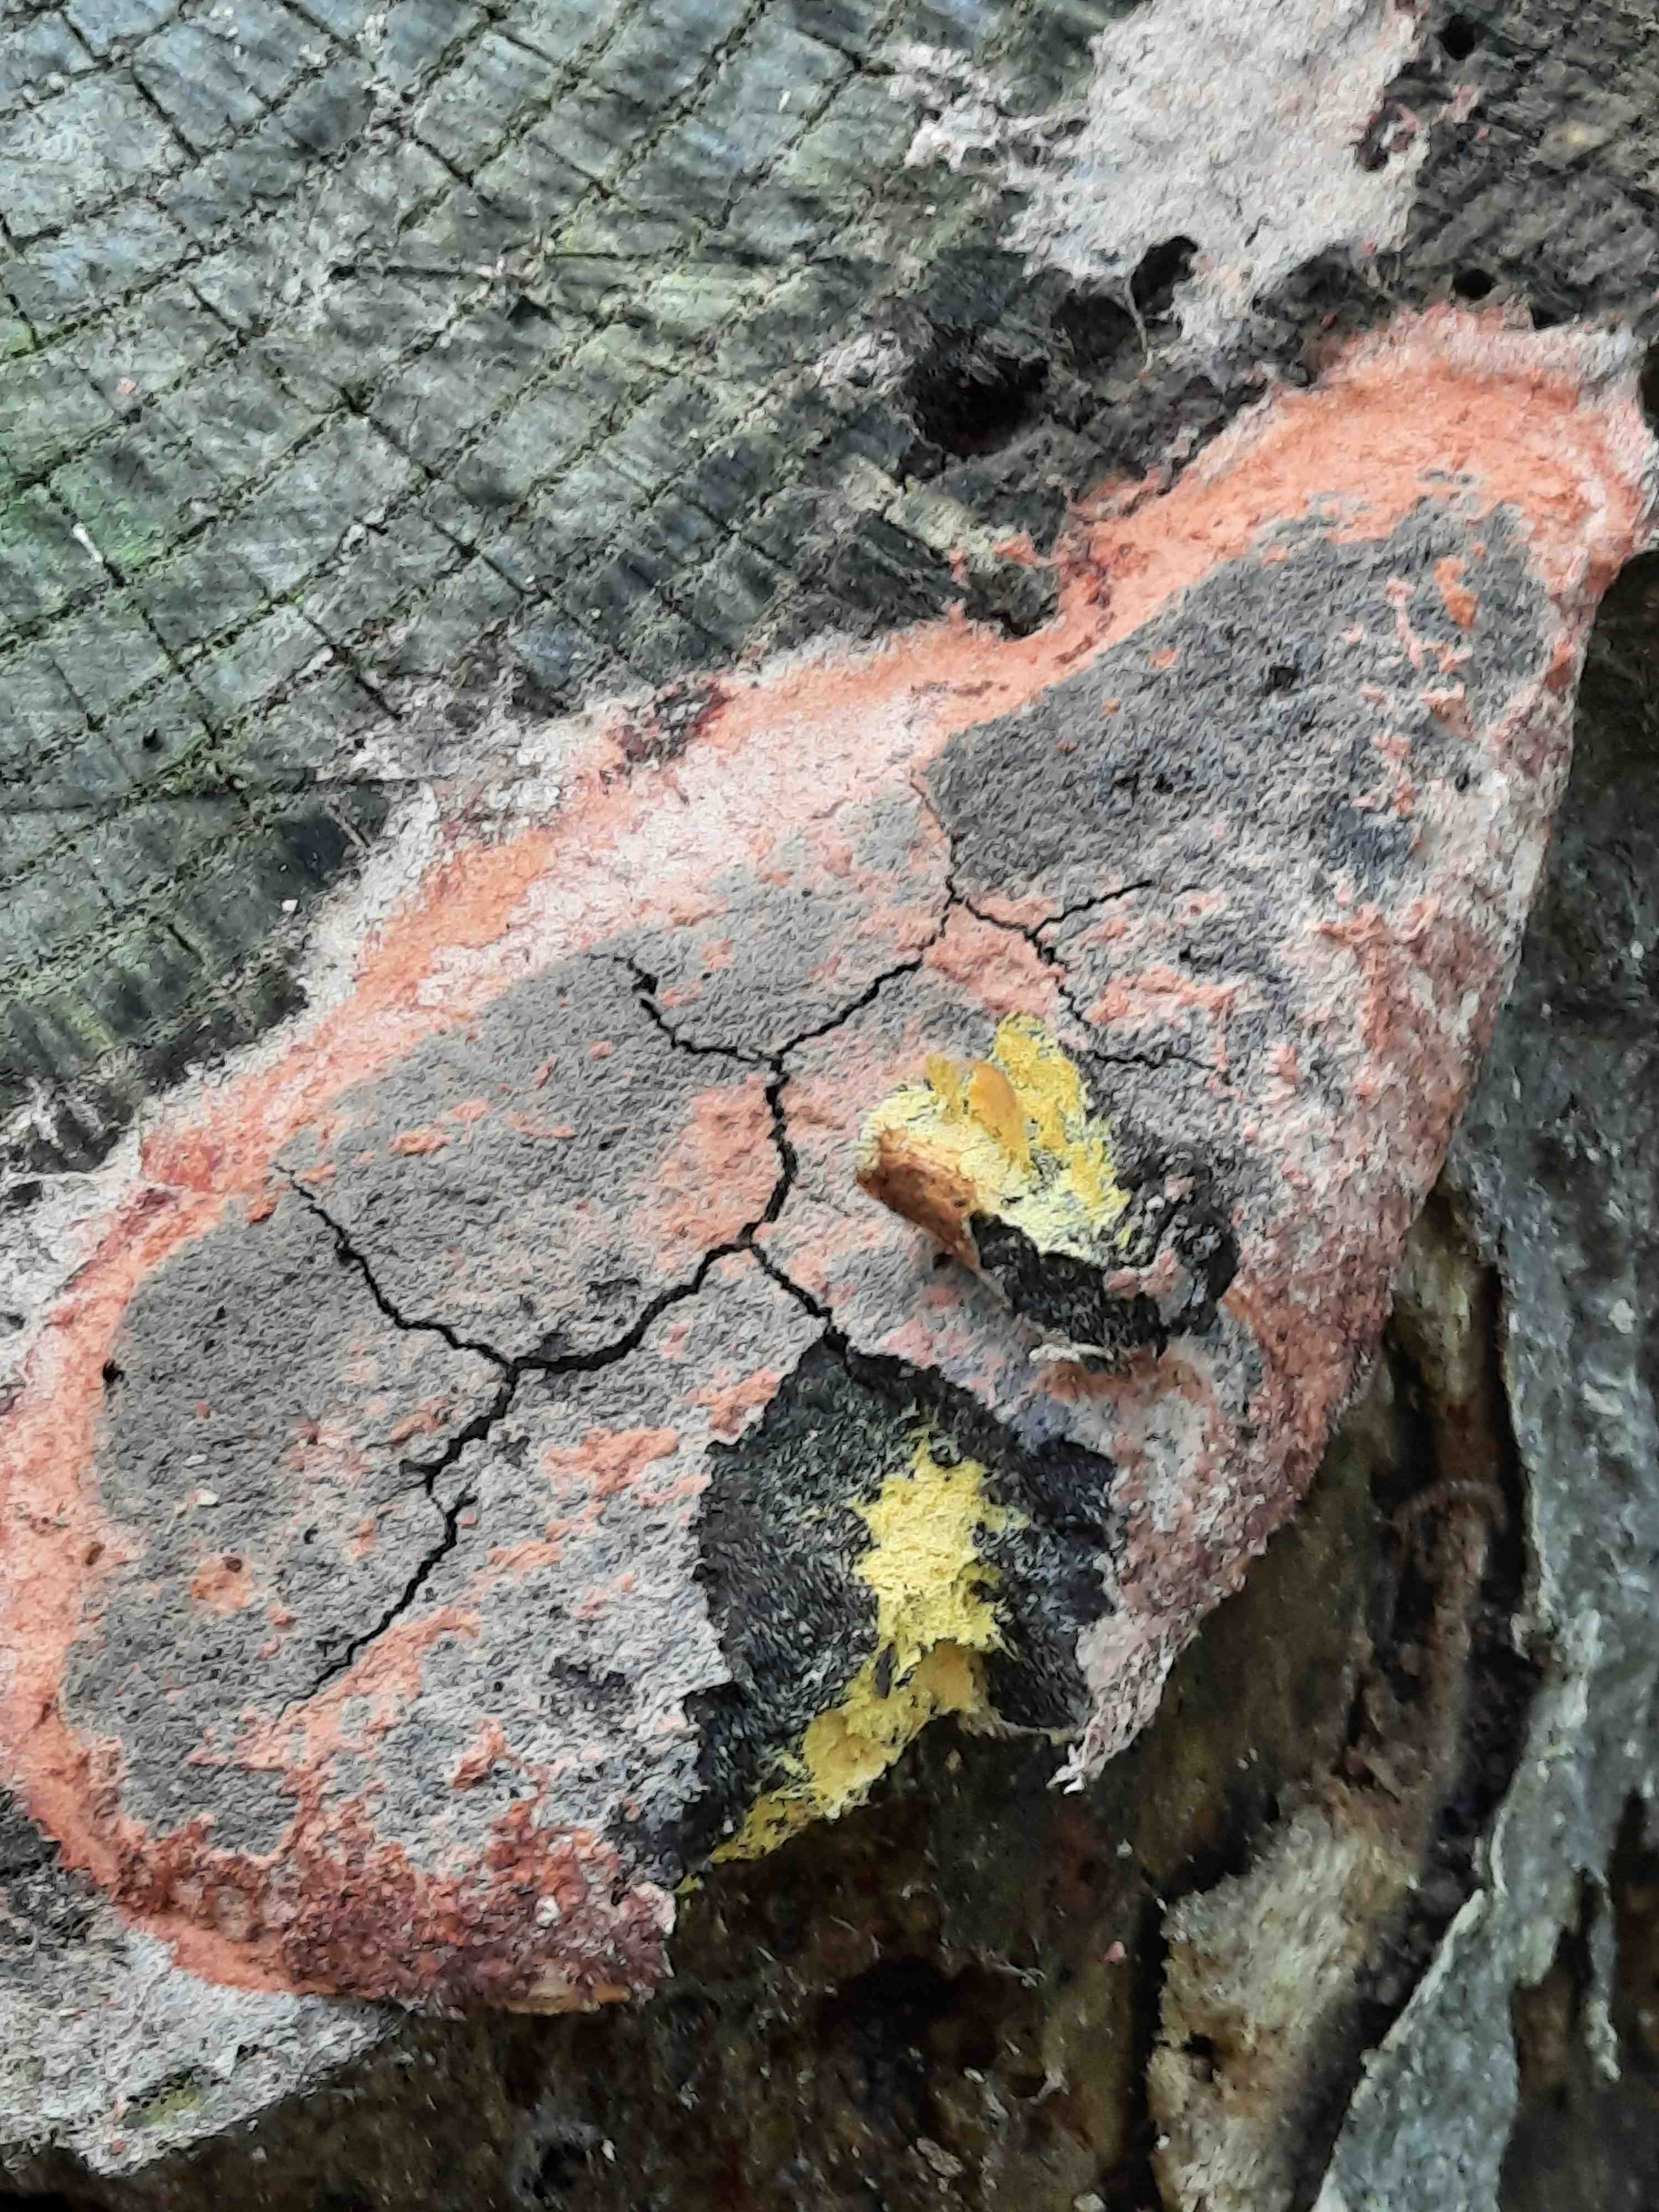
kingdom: Protozoa
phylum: Mycetozoa
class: Myxomycetes
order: Physarales
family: Physaraceae
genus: Fuligo
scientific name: Fuligo septica
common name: Dog vomit slime mold
